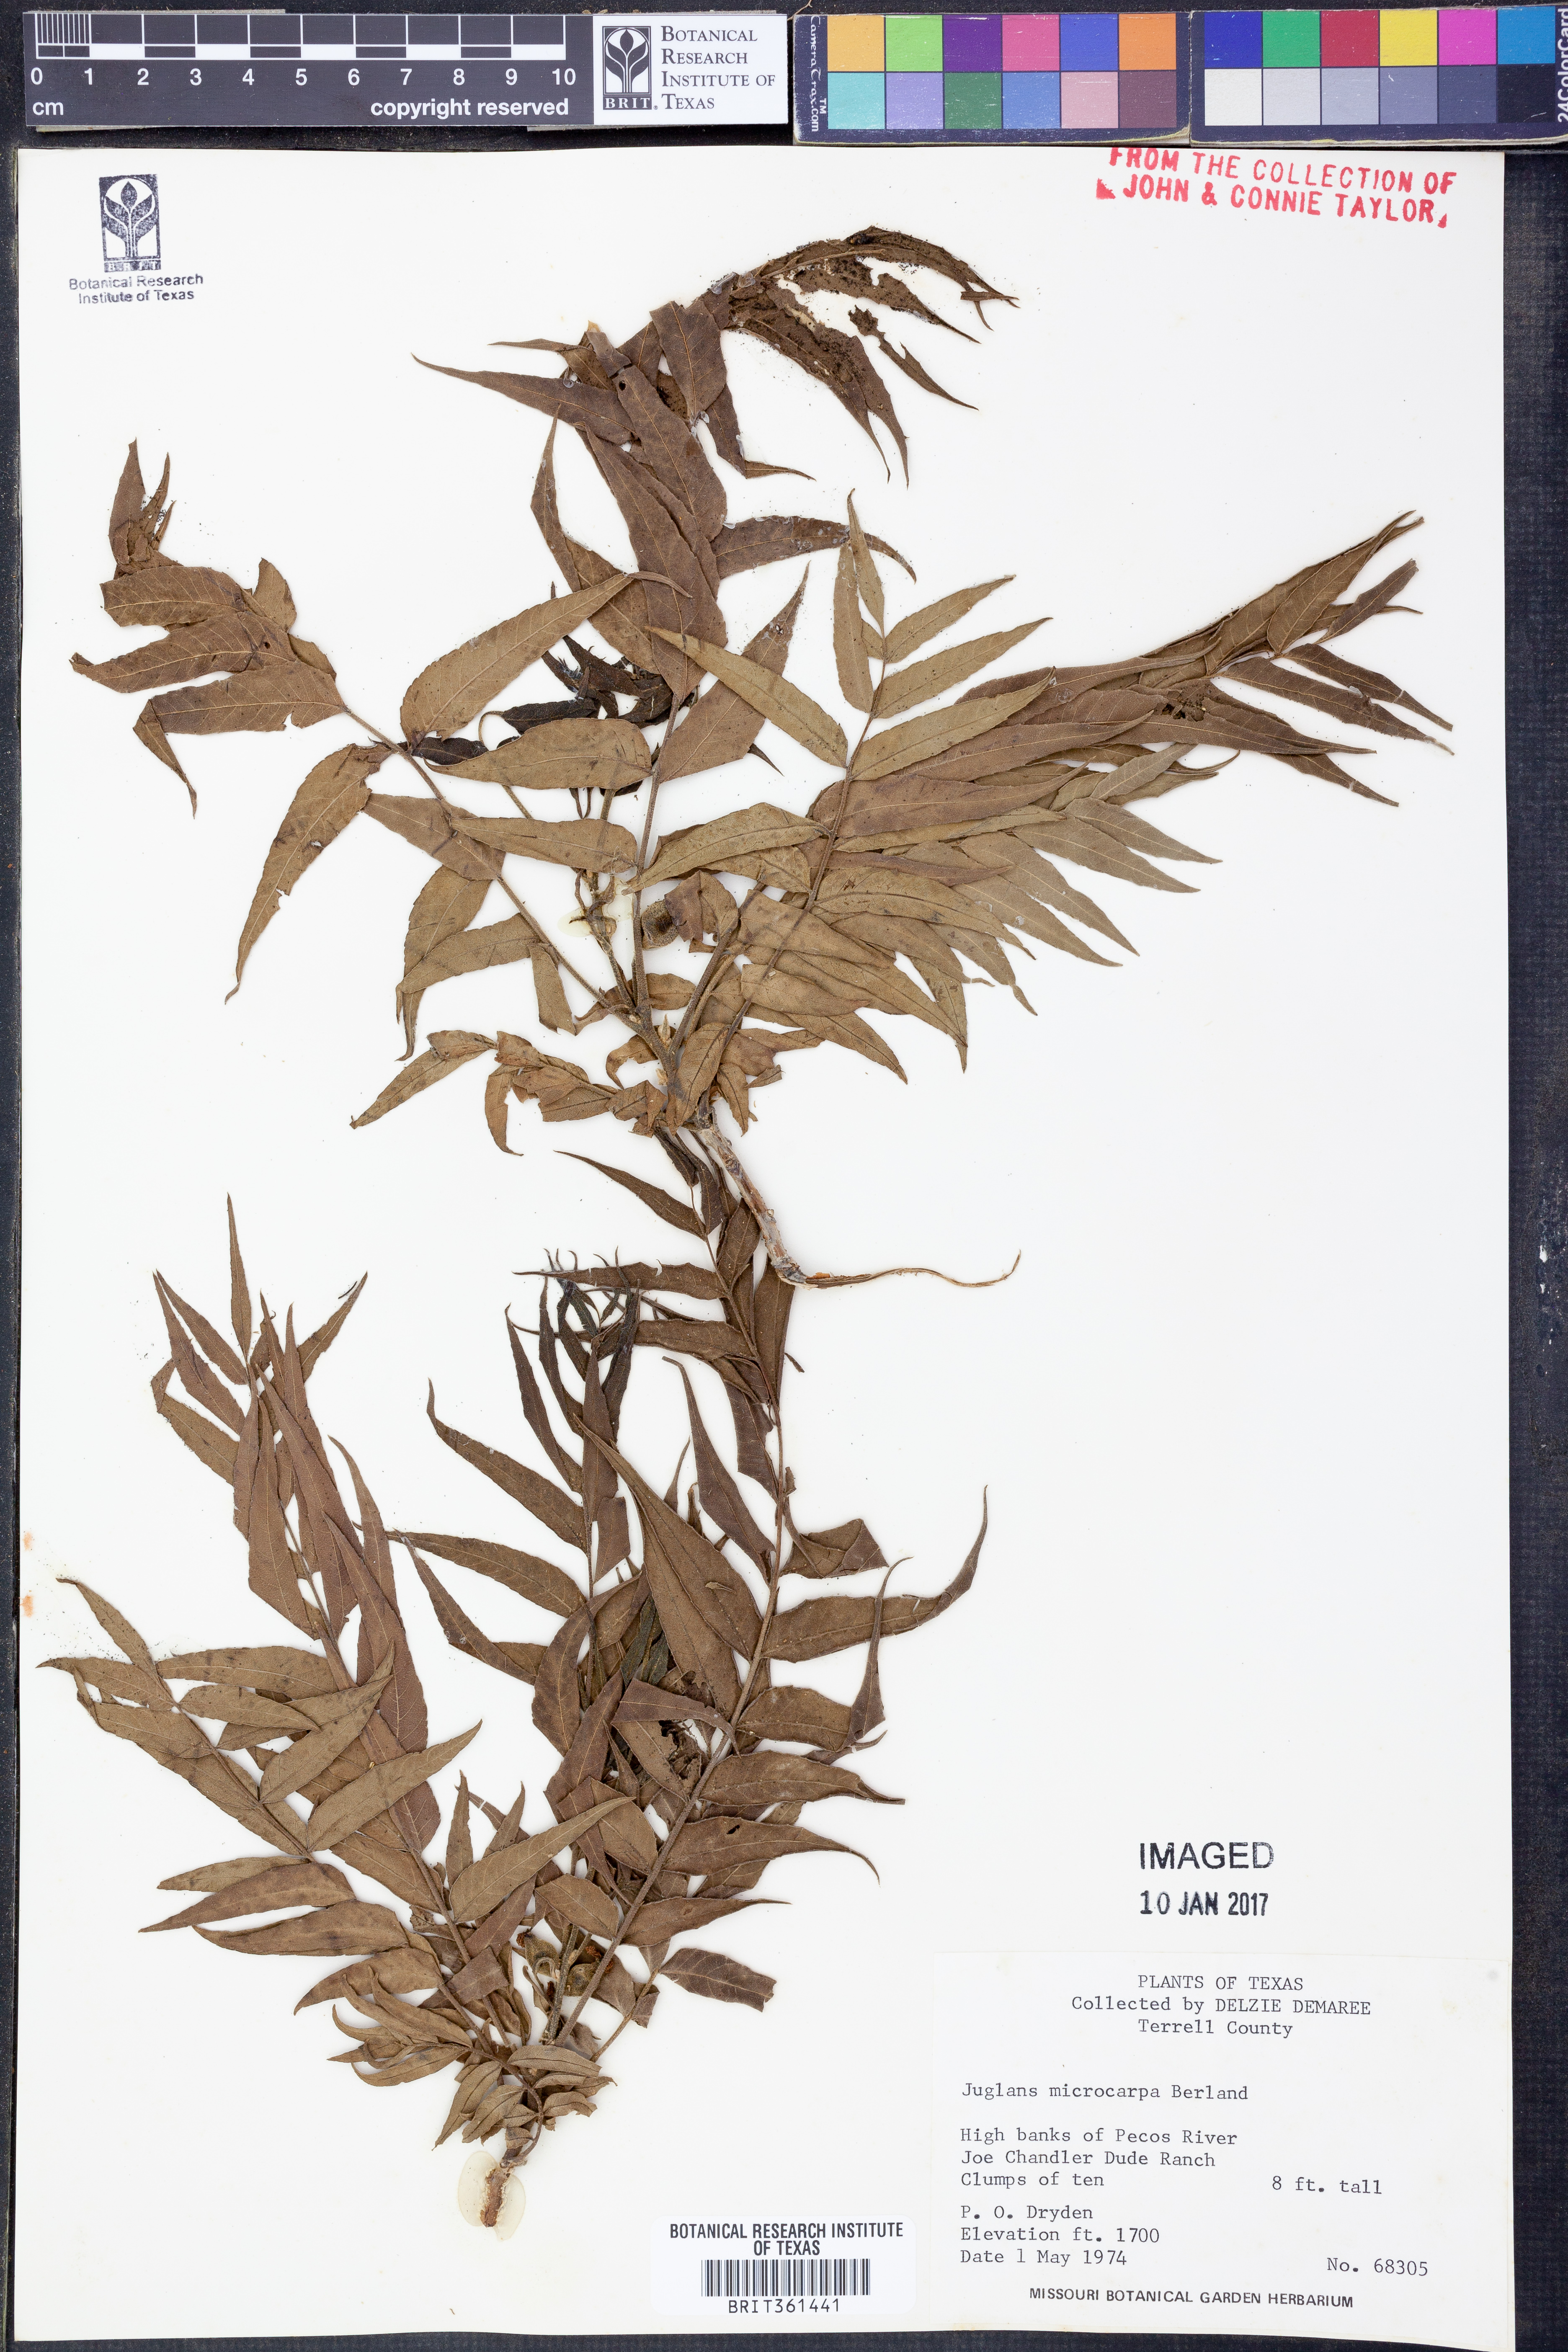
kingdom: Plantae
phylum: Tracheophyta
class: Magnoliopsida
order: Fagales
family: Juglandaceae
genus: Juglans
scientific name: Juglans microcarpa
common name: Texas walnut
